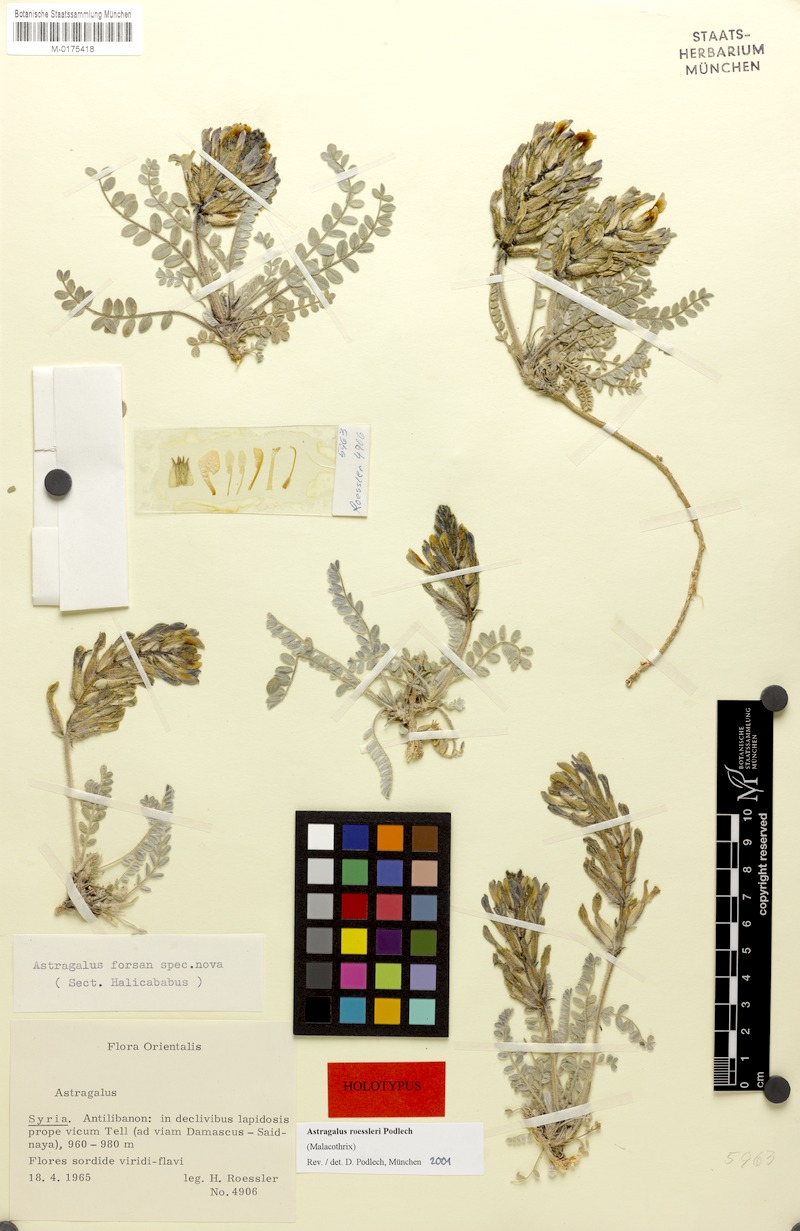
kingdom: Plantae
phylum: Tracheophyta
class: Magnoliopsida
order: Fabales
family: Fabaceae
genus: Astragalus
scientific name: Astragalus roessleri
